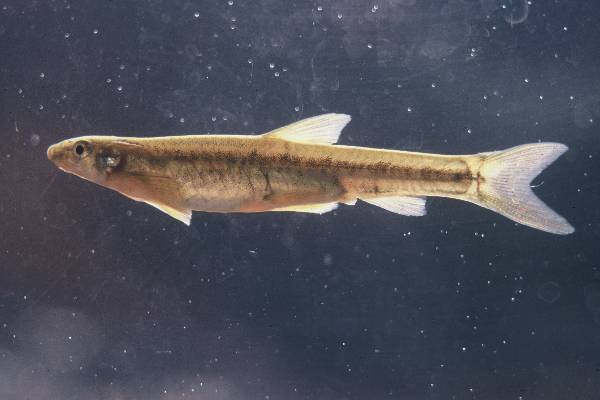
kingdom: Animalia
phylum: Chordata
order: Gonorynchiformes
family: Kneriidae
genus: Kneria
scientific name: Kneria maydelli
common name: Cunene kneria
